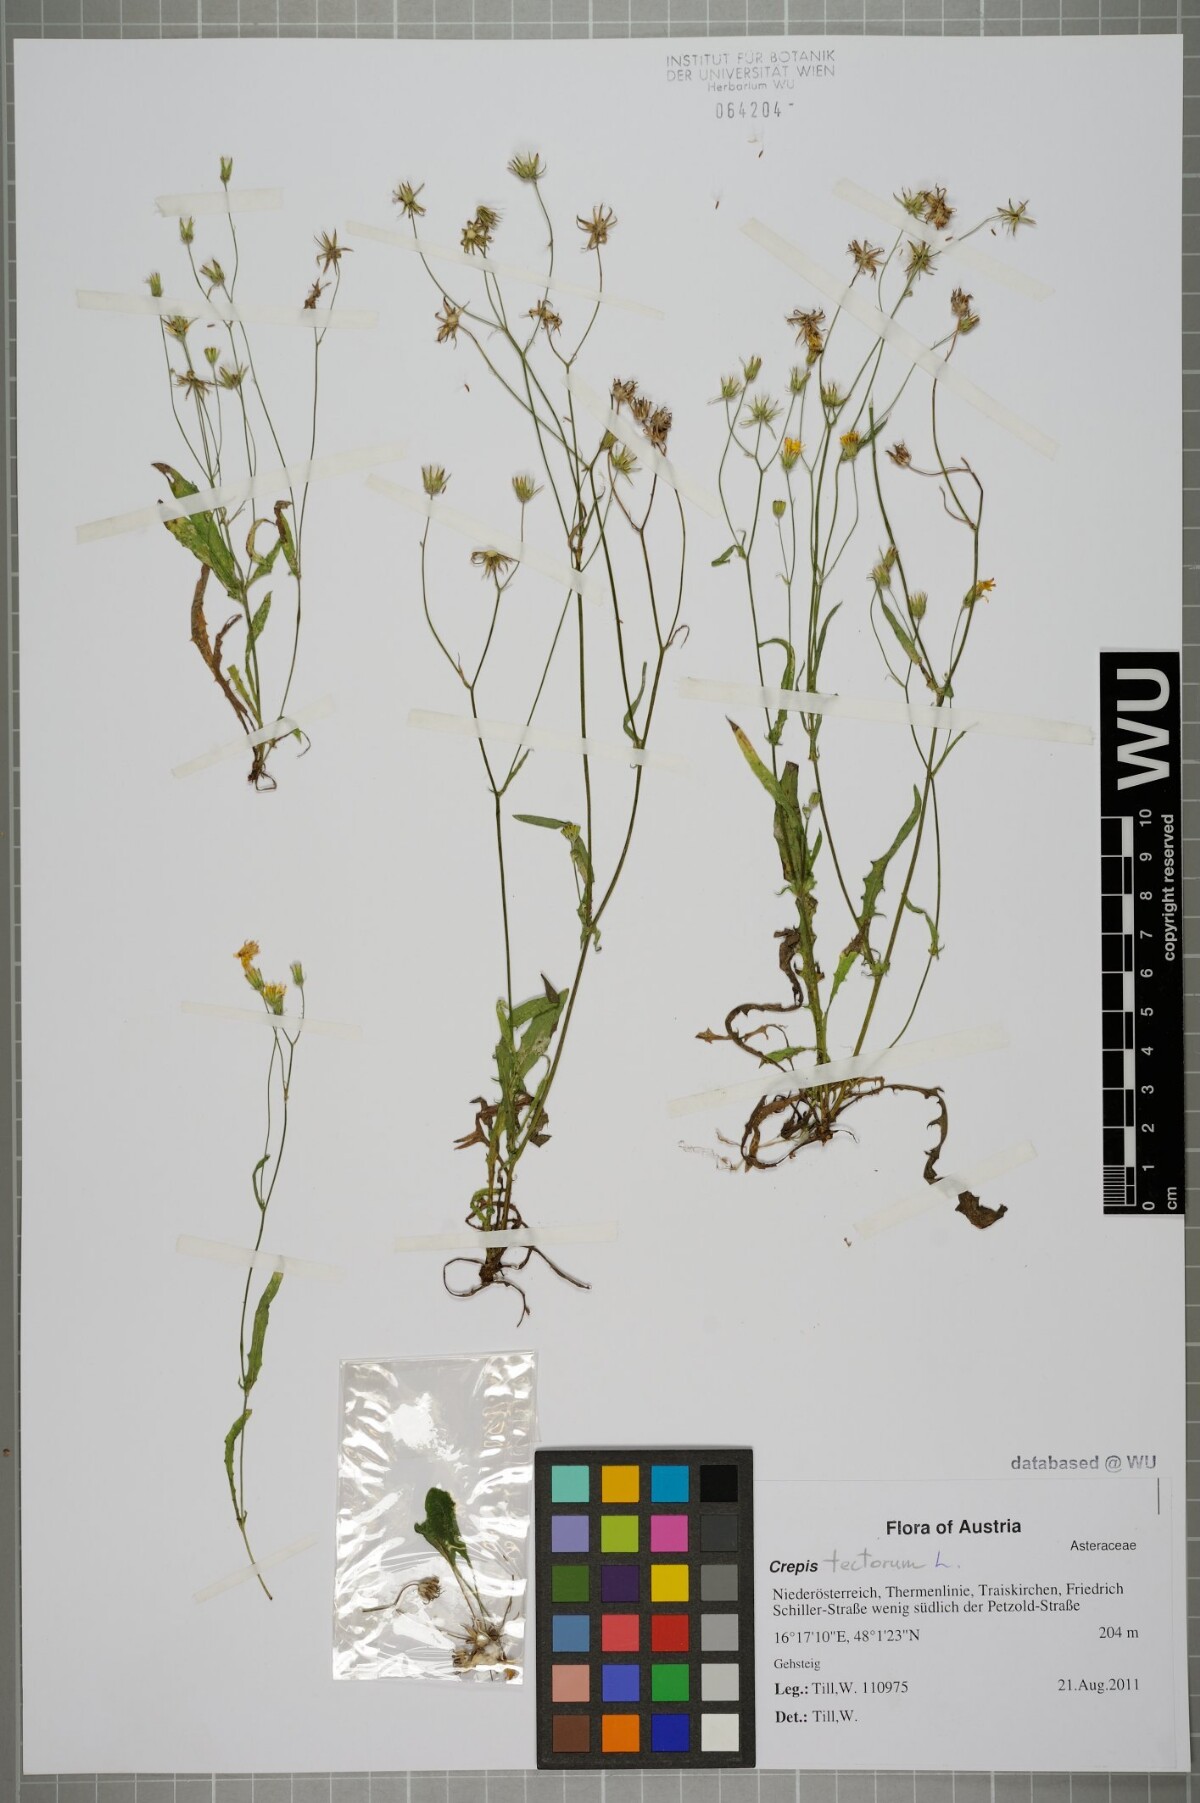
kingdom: Plantae
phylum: Tracheophyta
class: Magnoliopsida
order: Asterales
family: Asteraceae
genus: Crepis
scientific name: Crepis tectorum
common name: Narrow-leaved hawk's-beard
